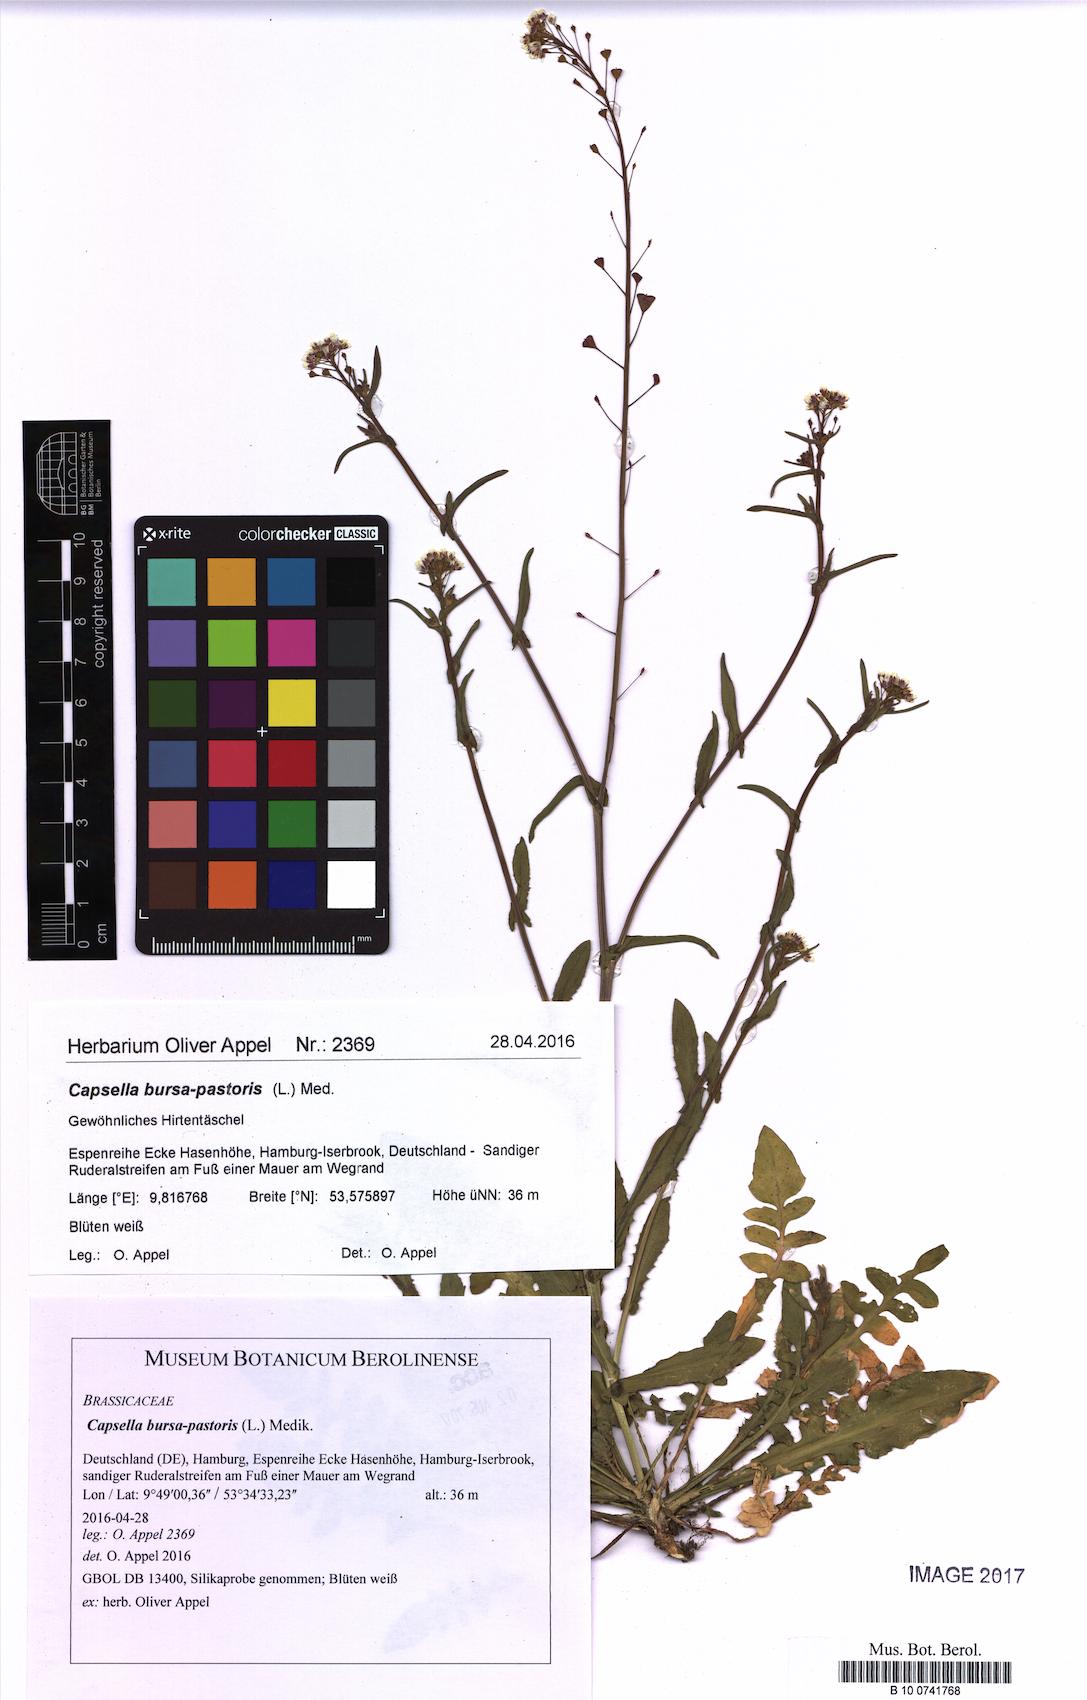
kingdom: Plantae
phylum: Tracheophyta
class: Magnoliopsida
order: Brassicales
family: Brassicaceae
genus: Capsella
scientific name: Capsella bursa-pastoris
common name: Shepherd's purse
